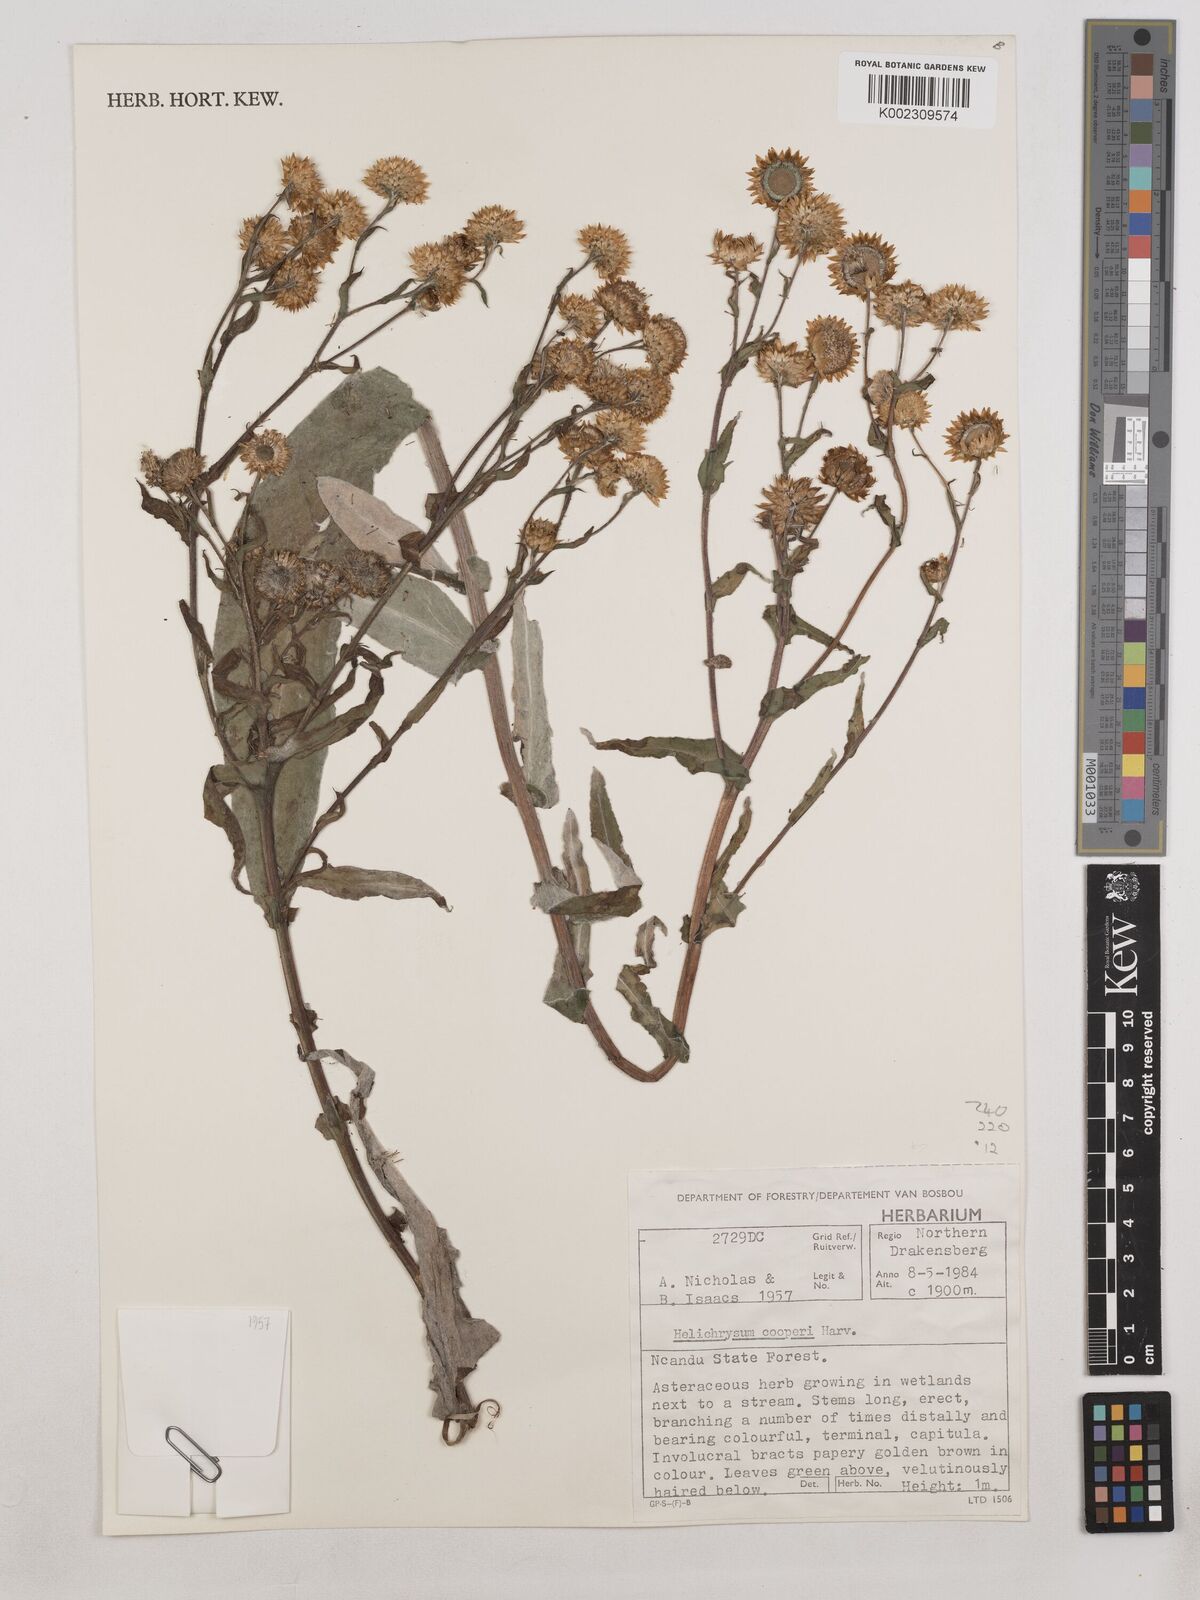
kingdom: Plantae
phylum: Tracheophyta
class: Magnoliopsida
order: Asterales
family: Asteraceae
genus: Helichrysum
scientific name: Helichrysum cooperi
